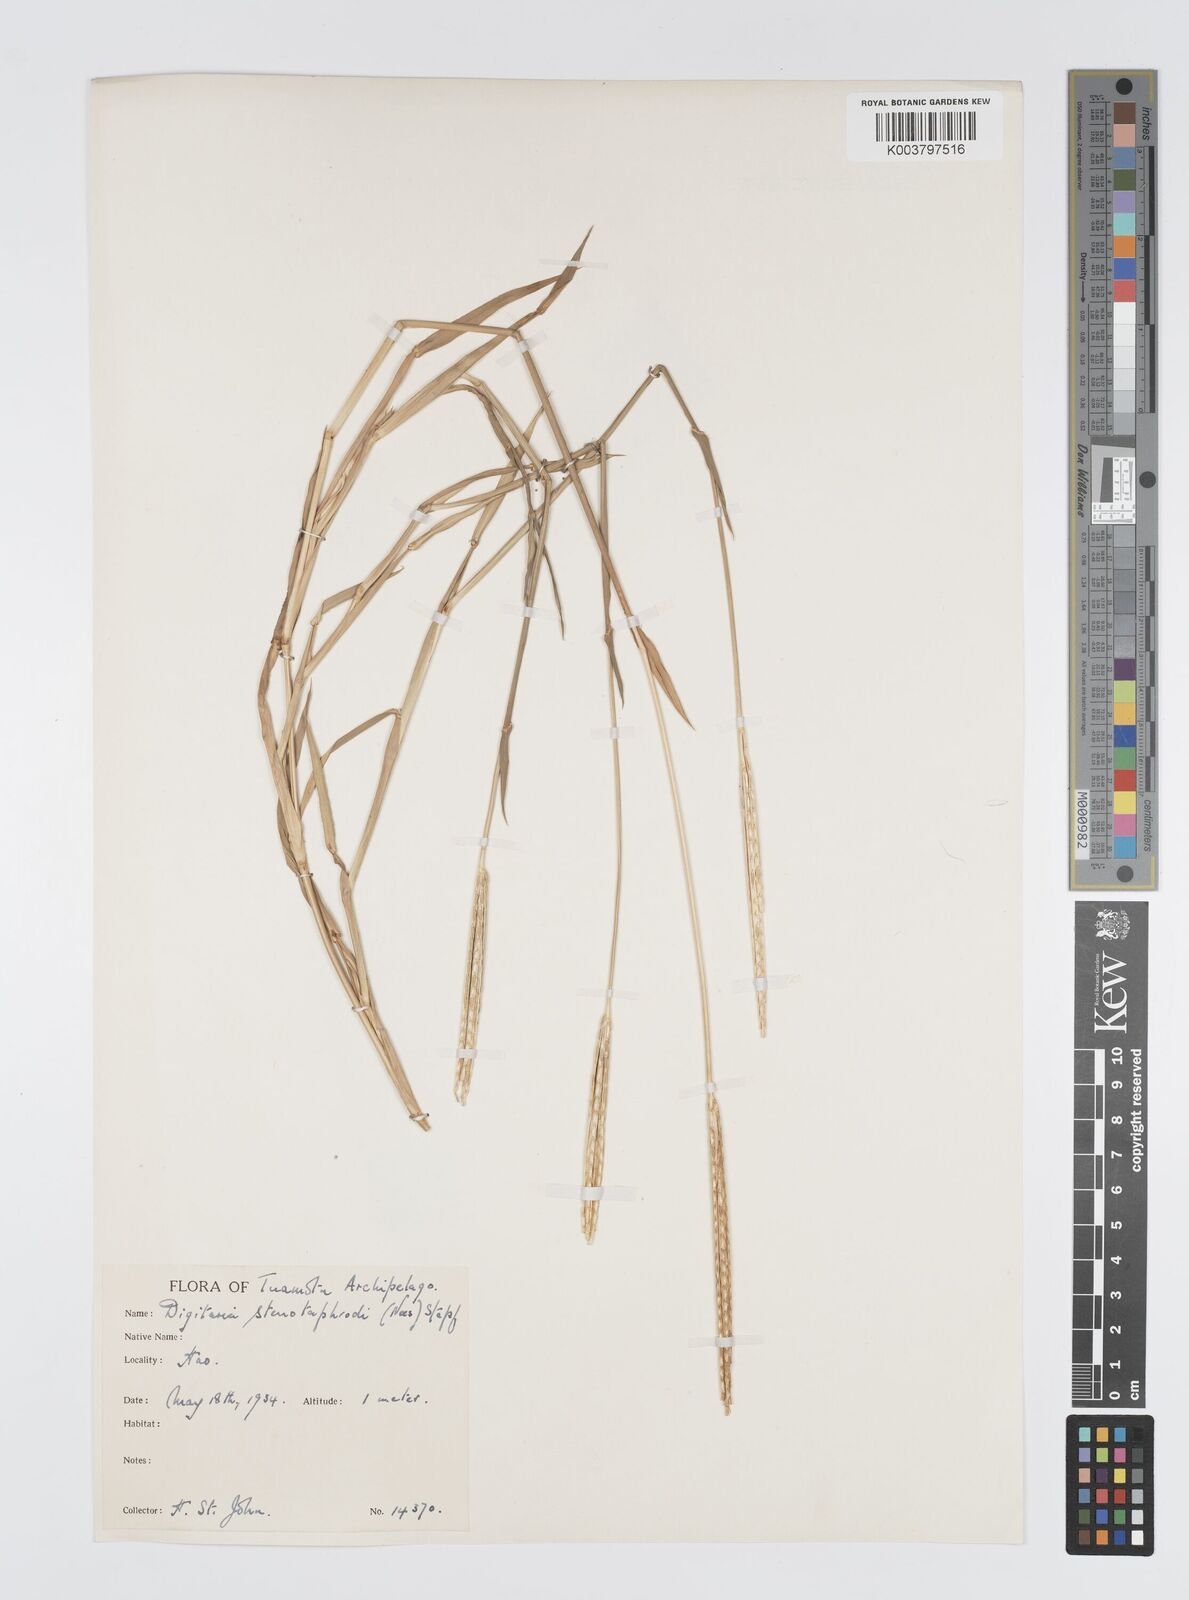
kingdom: Plantae
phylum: Tracheophyta
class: Liliopsida
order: Poales
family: Poaceae
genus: Digitaria
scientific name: Digitaria stenotaphrodes
